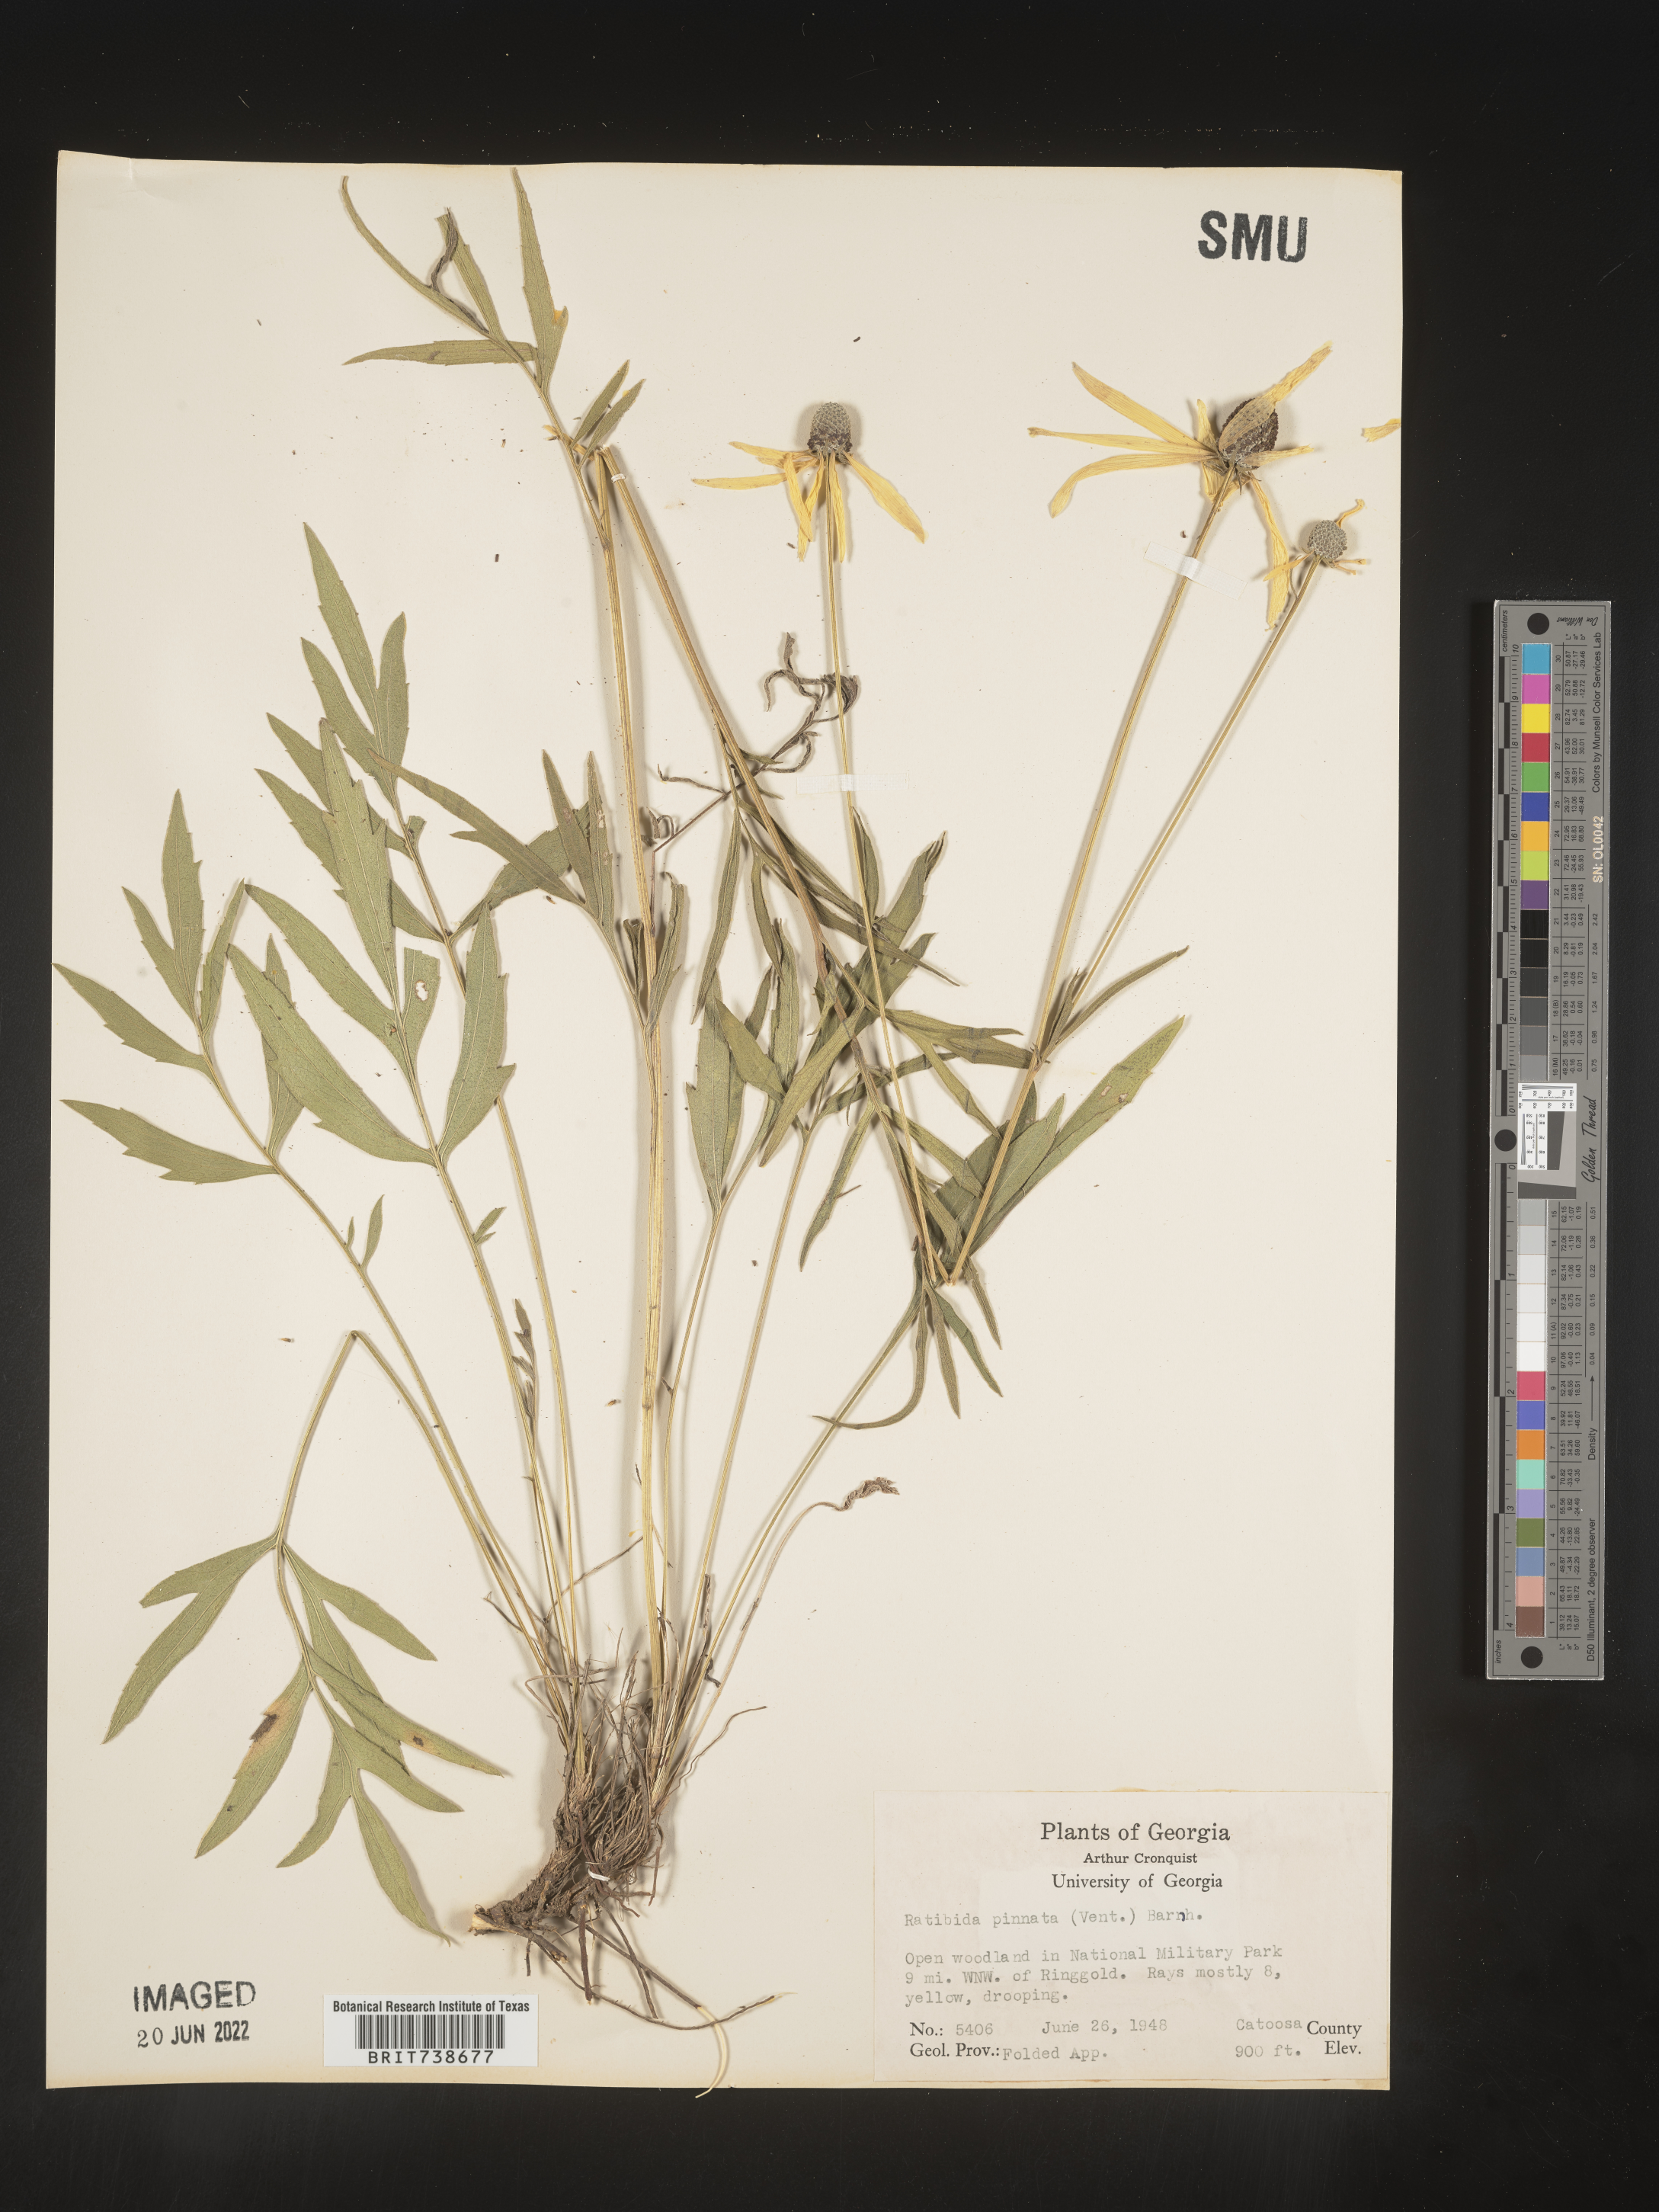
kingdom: Plantae
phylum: Tracheophyta
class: Magnoliopsida
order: Asterales
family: Asteraceae
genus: Ratibida
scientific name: Ratibida pinnata
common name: Drooping prairie-coneflower
